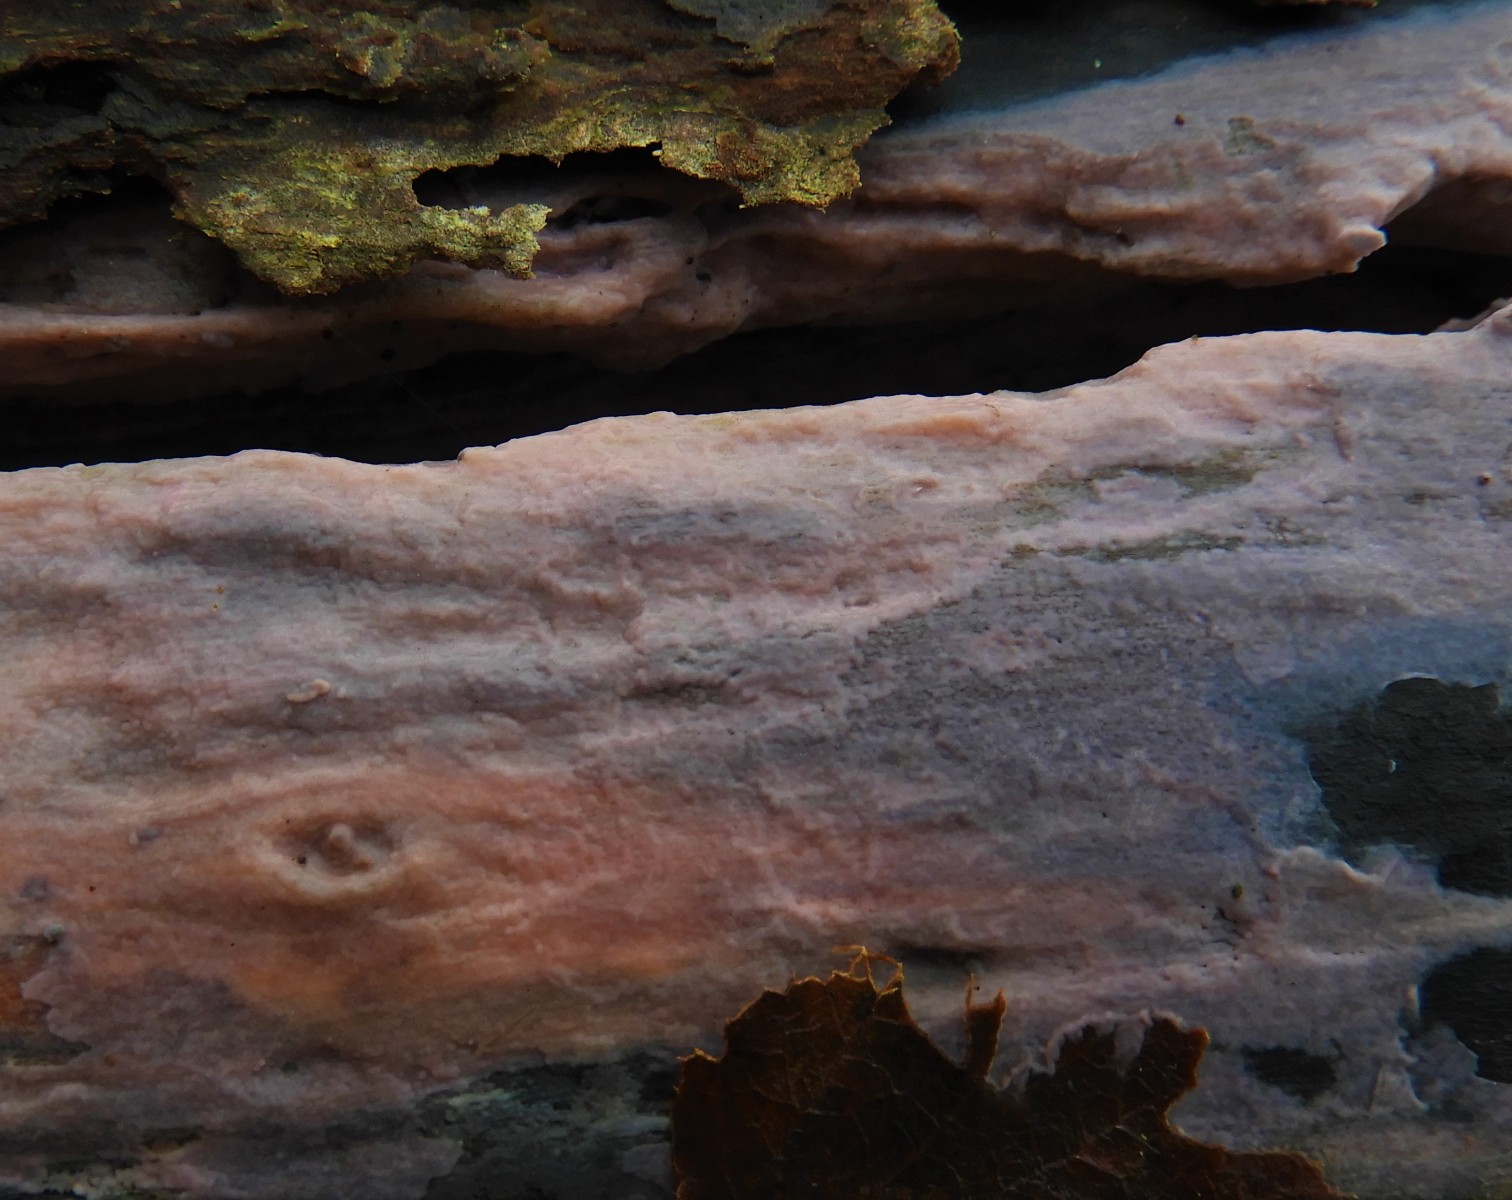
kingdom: Fungi
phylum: Basidiomycota
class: Agaricomycetes
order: Cantharellales
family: Tulasnellaceae
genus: Tulasnella
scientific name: Tulasnella
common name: ballonhinde
